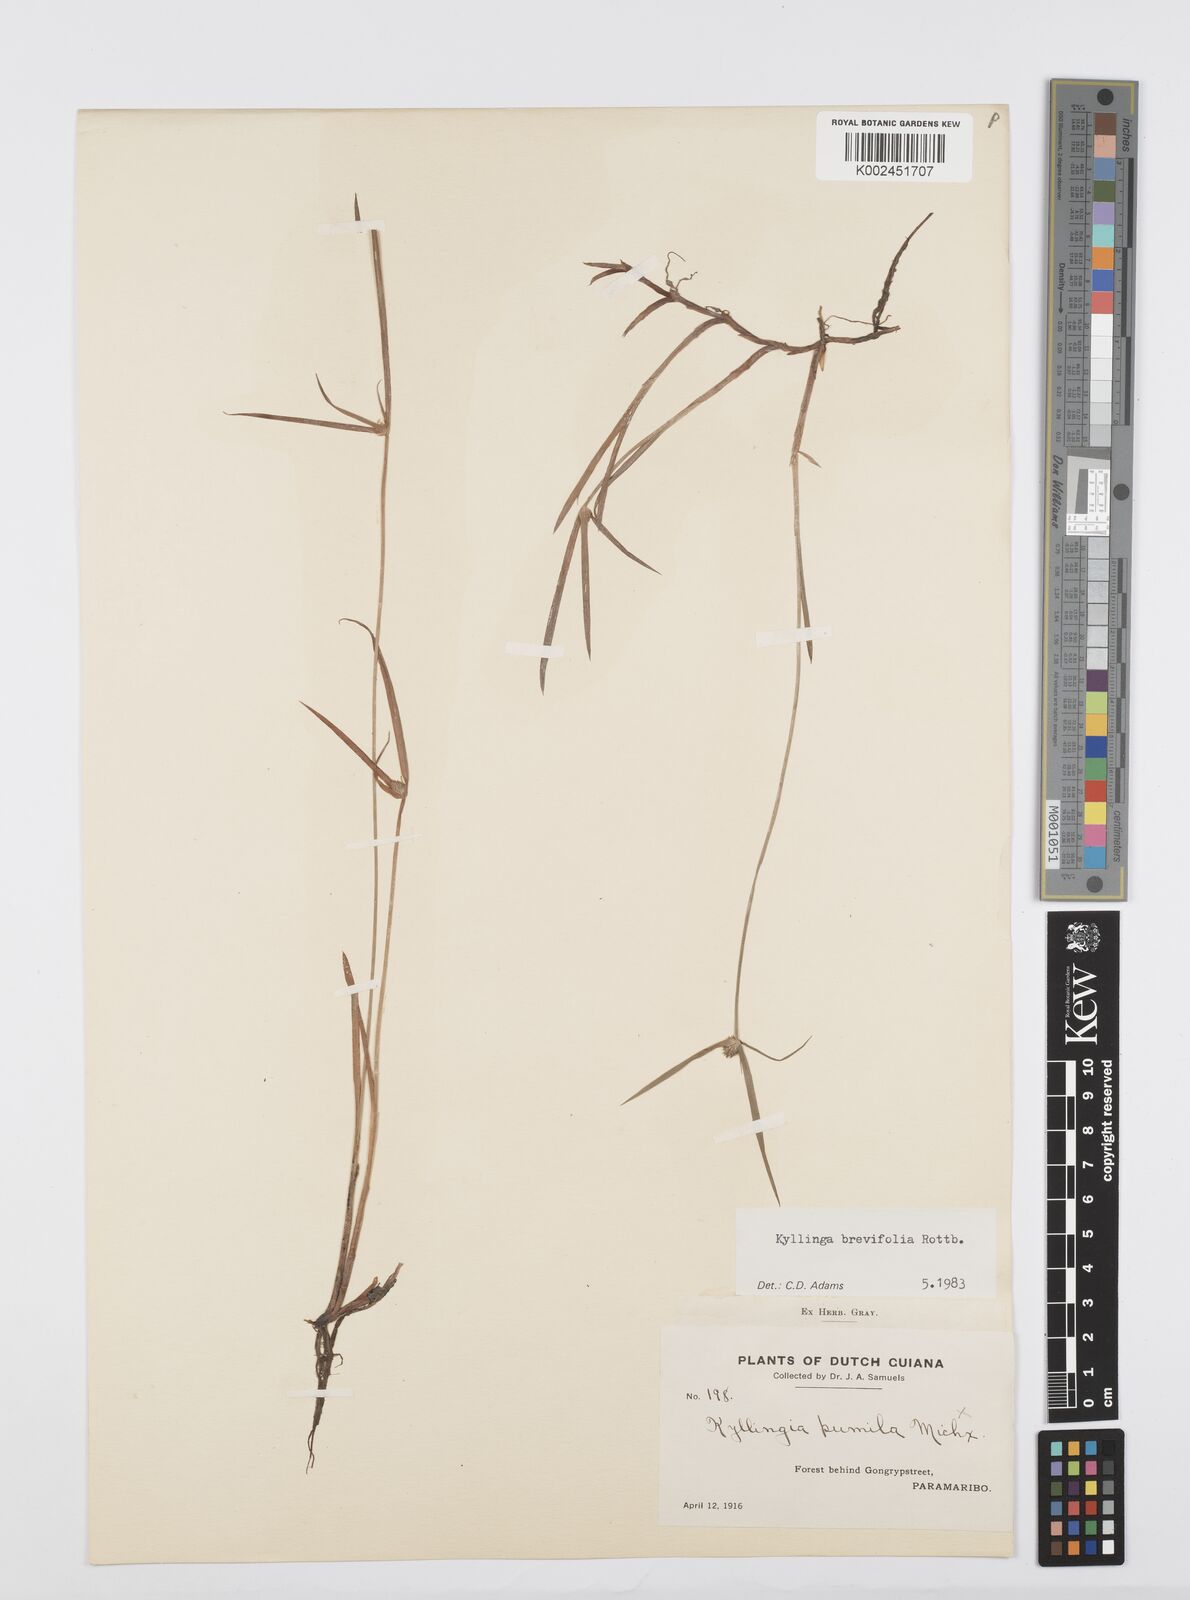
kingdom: Plantae
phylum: Tracheophyta
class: Liliopsida
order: Poales
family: Cyperaceae
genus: Cyperus
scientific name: Cyperus brevifolius
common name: Globe kyllinga
